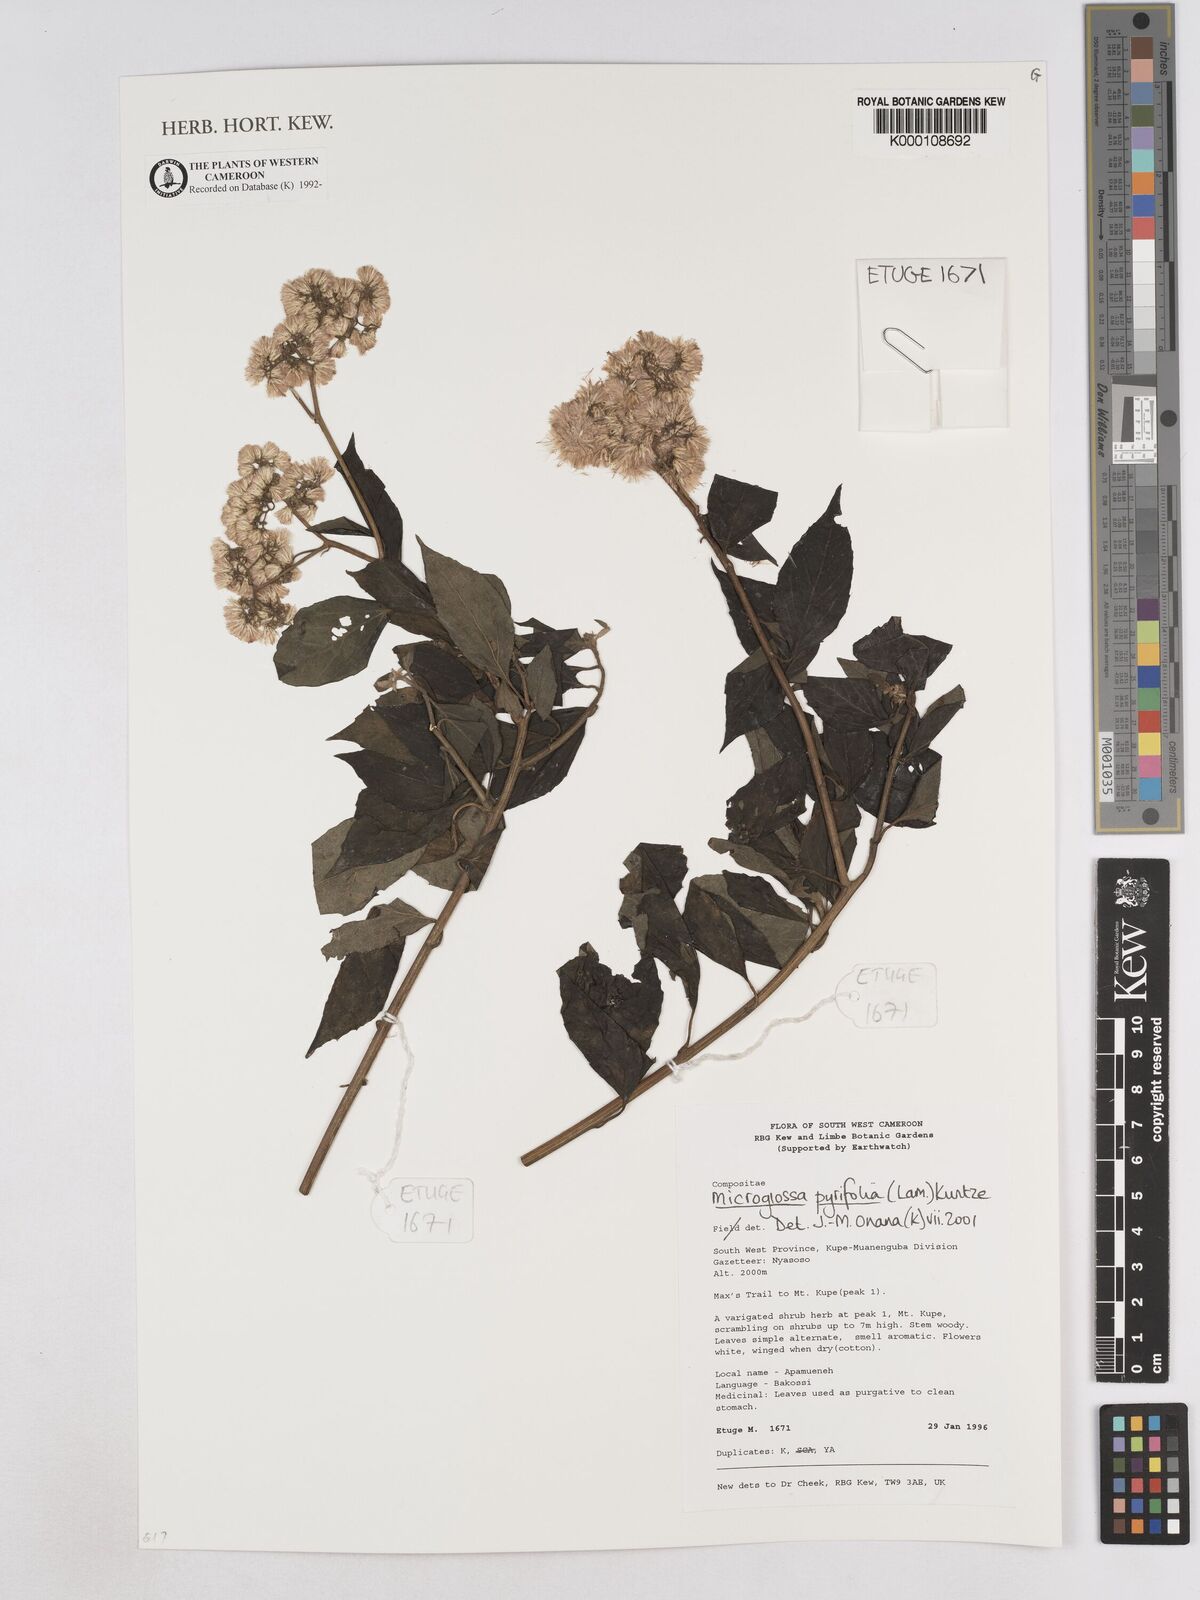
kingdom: Plantae
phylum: Tracheophyta
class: Magnoliopsida
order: Asterales
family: Asteraceae
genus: Microglossa
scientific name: Microglossa pyrifolia
